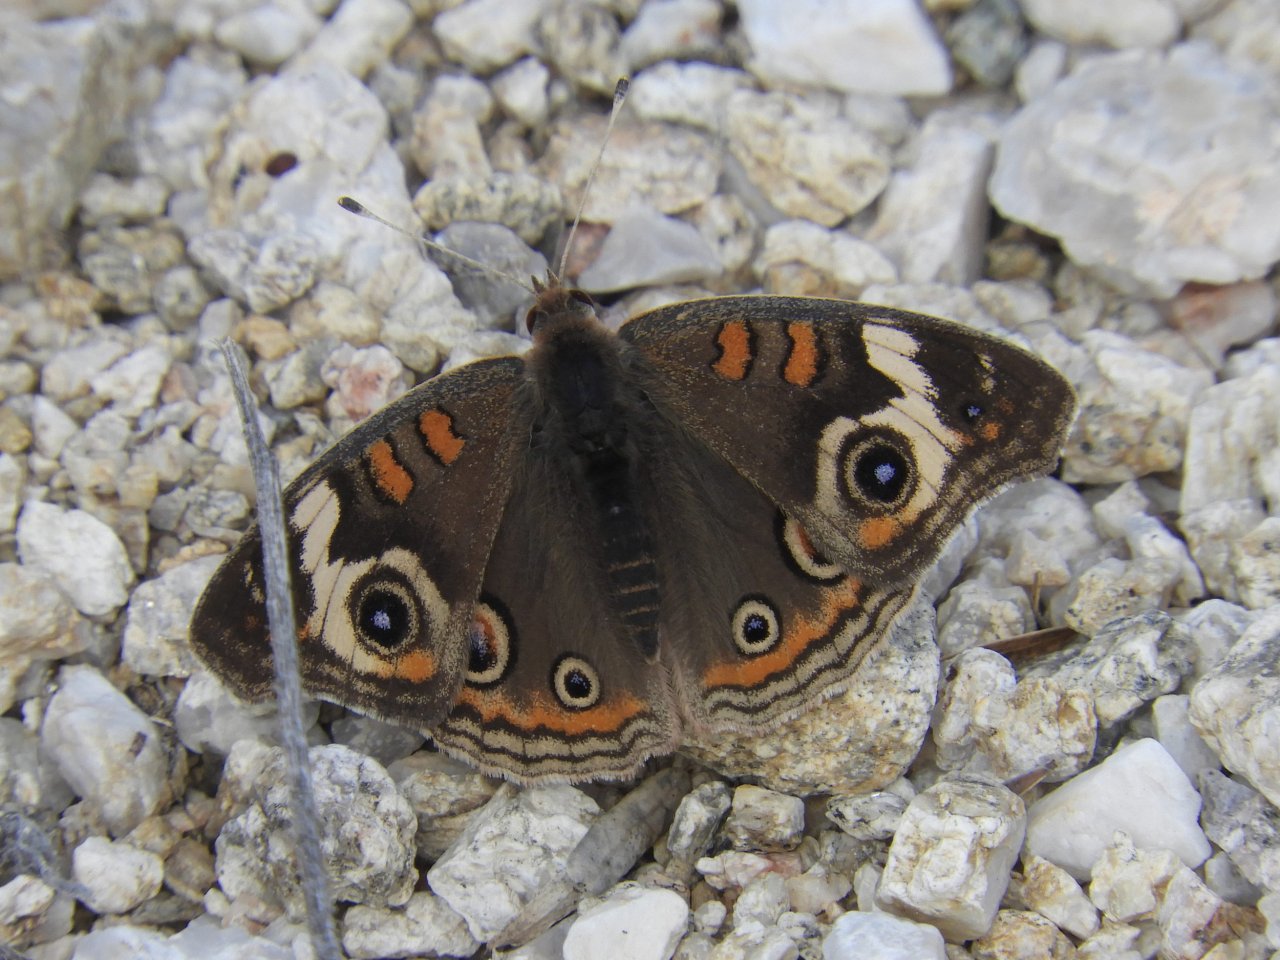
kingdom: Animalia
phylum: Arthropoda
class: Insecta
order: Lepidoptera
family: Nymphalidae
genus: Junonia
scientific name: Junonia coenia
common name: Common Buckeye
